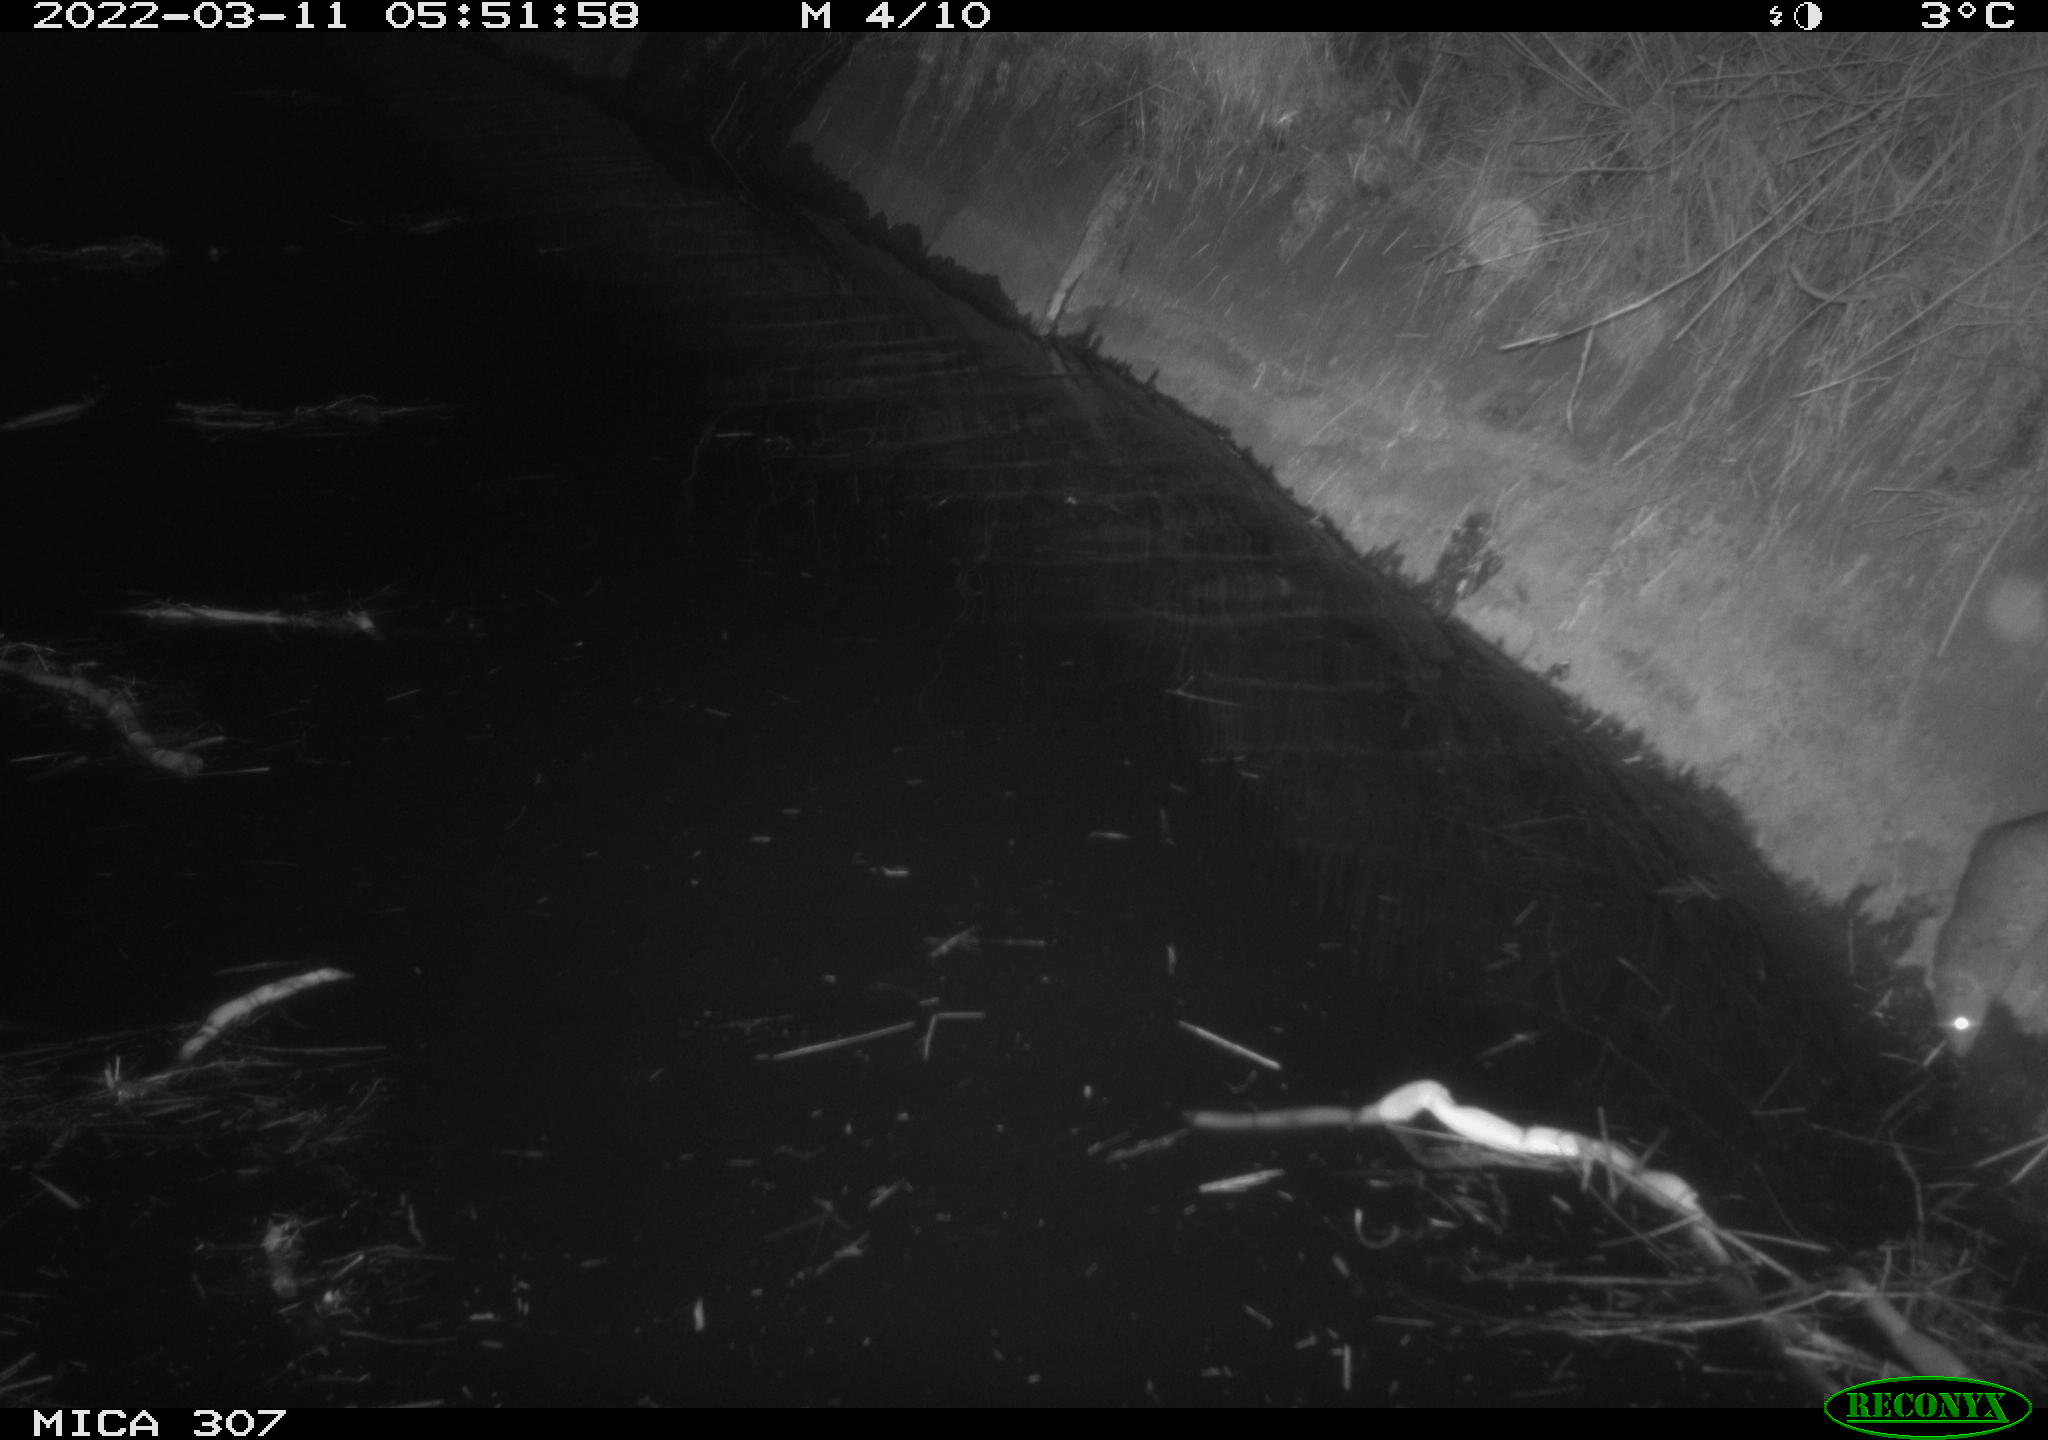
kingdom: Animalia
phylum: Chordata
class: Aves
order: Anseriformes
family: Anatidae
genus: Anas
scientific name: Anas platyrhynchos
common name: Mallard
